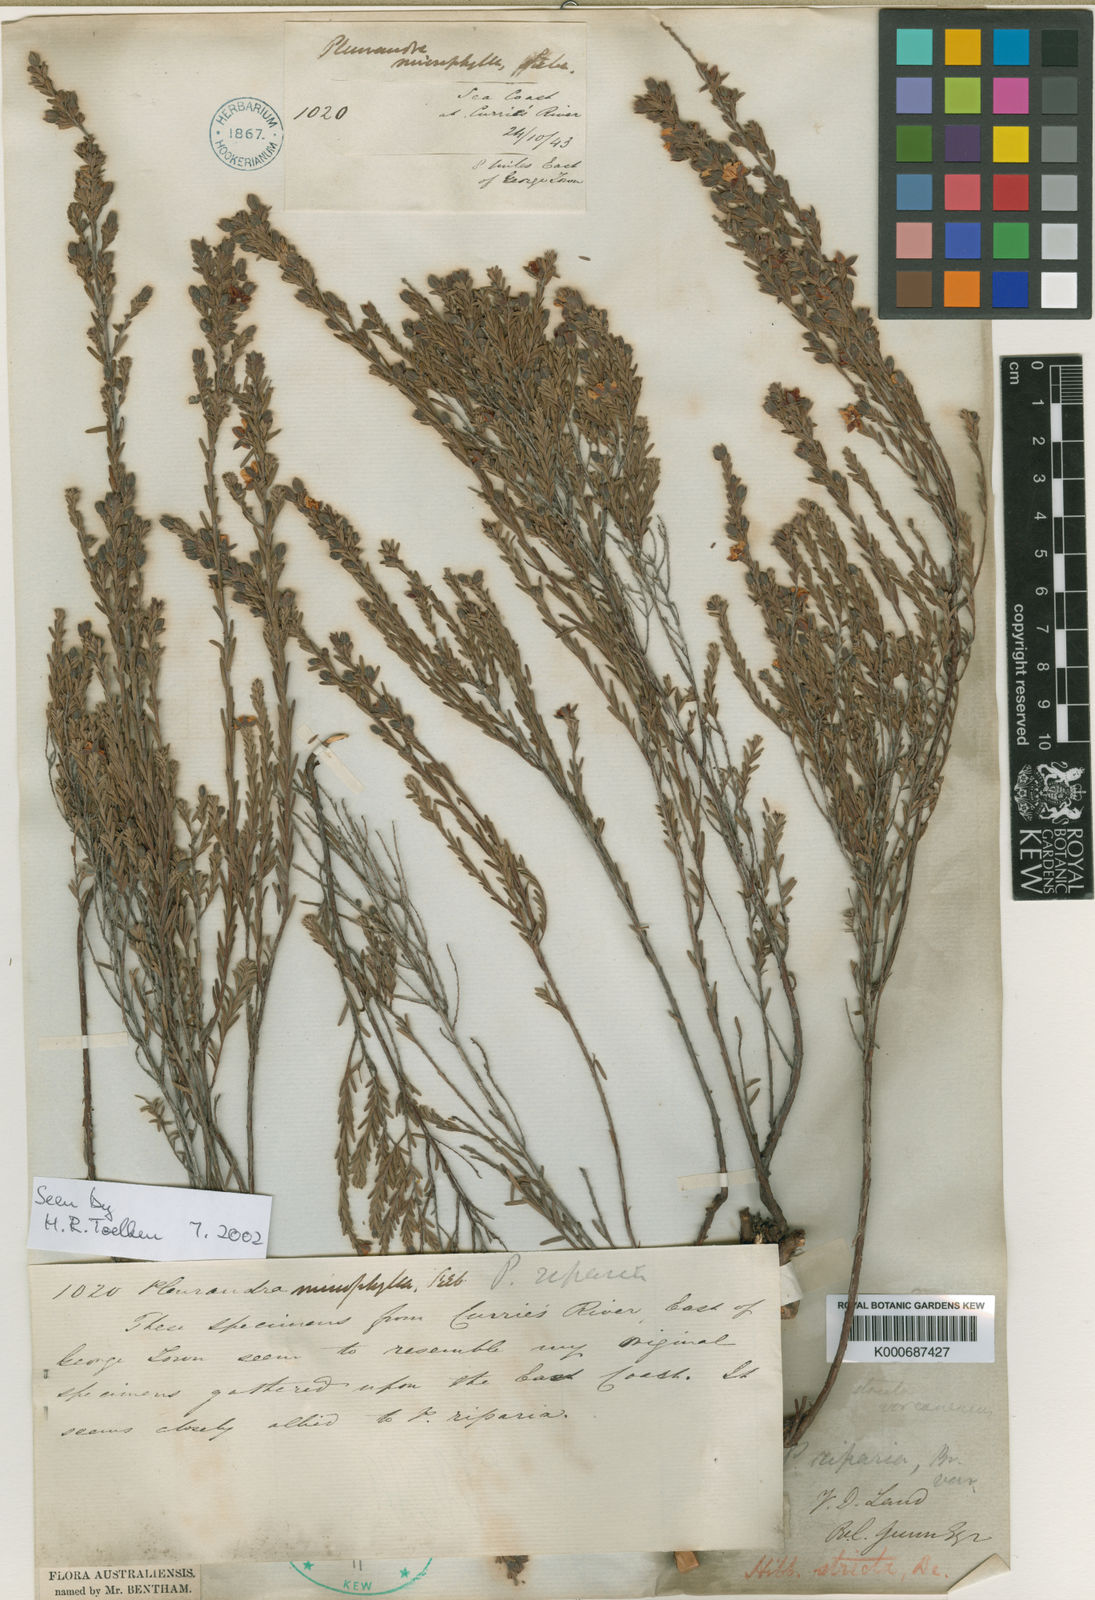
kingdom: Plantae
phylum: Tracheophyta
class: Magnoliopsida
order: Dilleniales
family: Dilleniaceae
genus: Hibbertia
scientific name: Hibbertia incana
